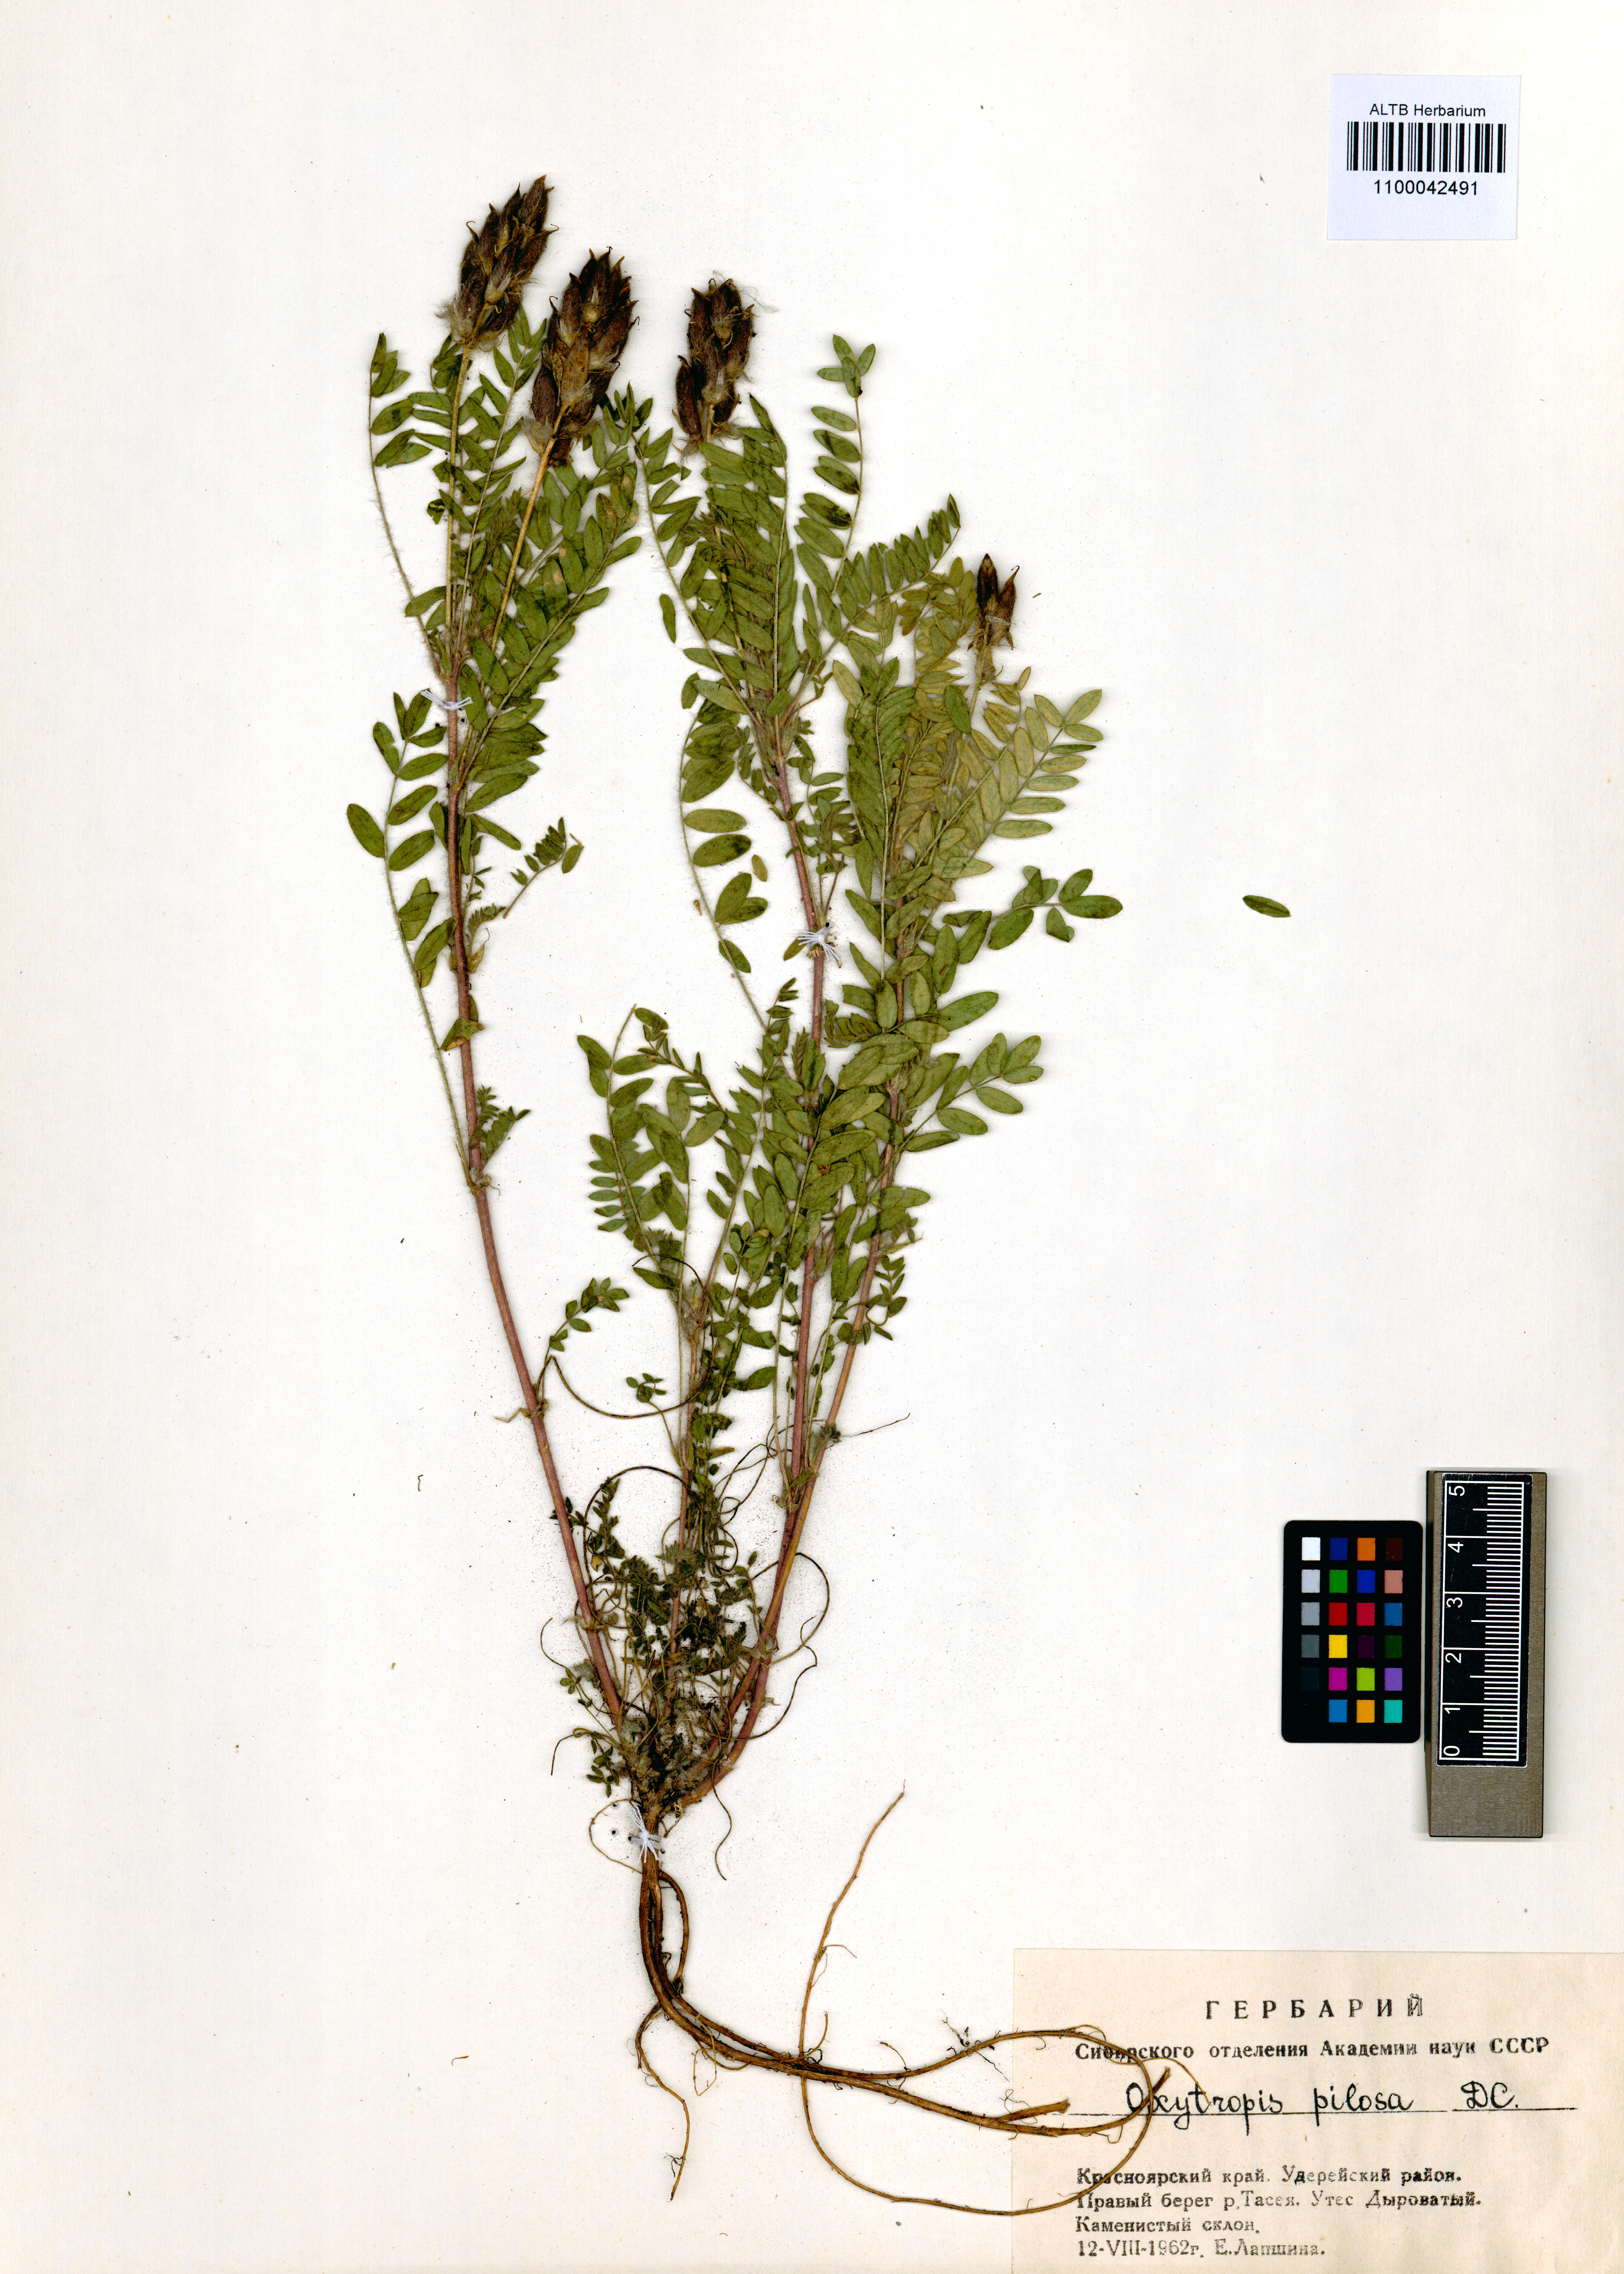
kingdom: Plantae
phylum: Tracheophyta
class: Magnoliopsida
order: Fabales
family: Fabaceae
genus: Oxytropis
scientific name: Oxytropis pilosa
